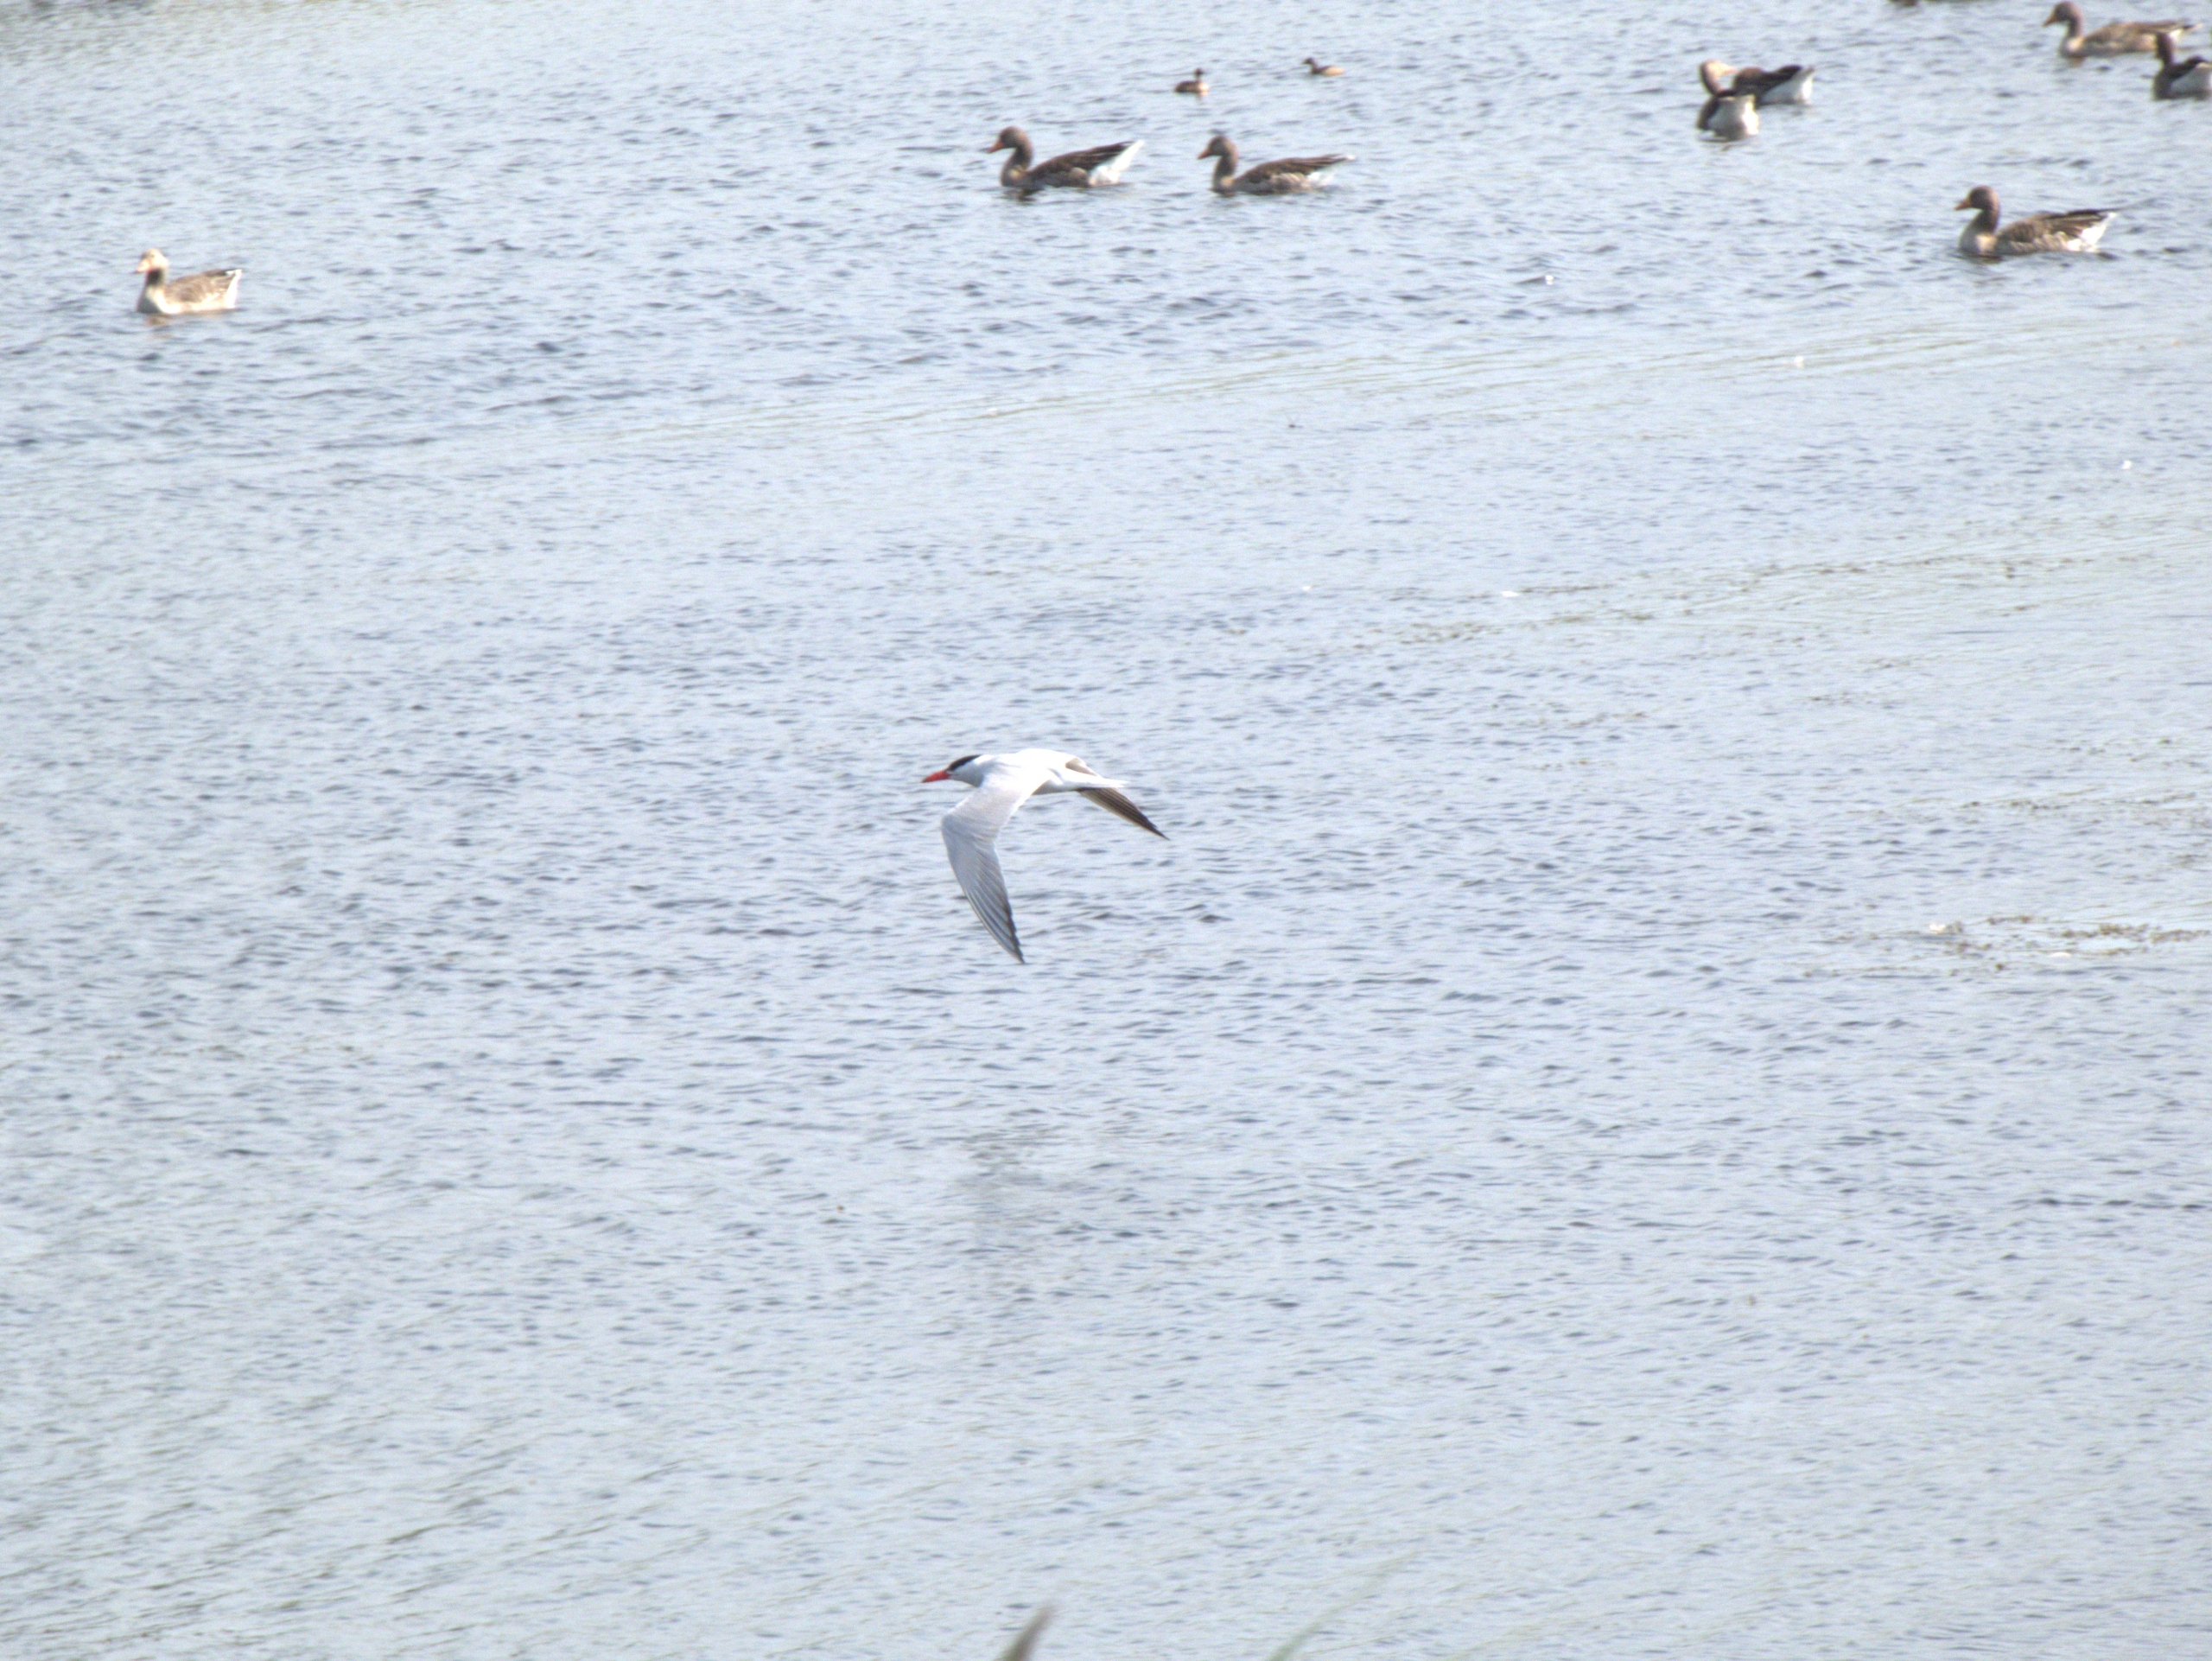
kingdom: Animalia
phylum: Chordata
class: Aves
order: Charadriiformes
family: Laridae
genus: Hydroprogne
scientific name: Hydroprogne caspia
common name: Rovterne
